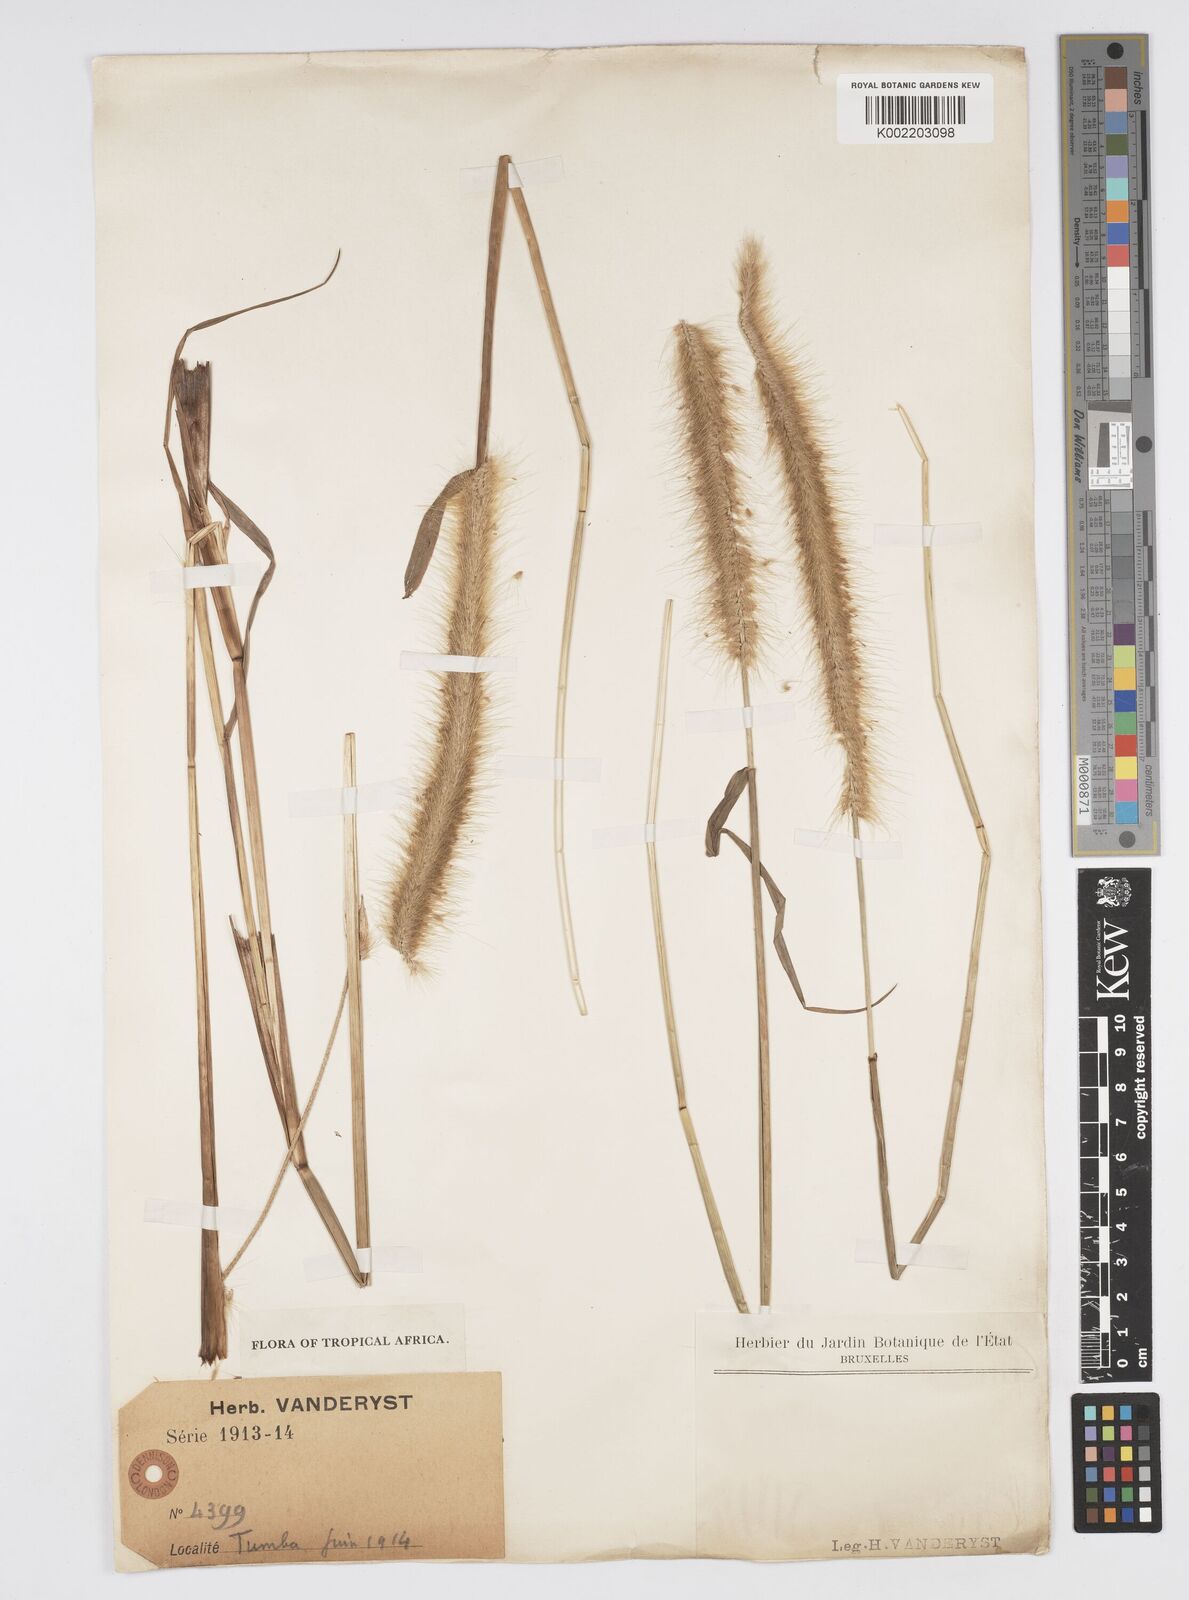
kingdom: Plantae
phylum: Tracheophyta
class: Liliopsida
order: Poales
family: Poaceae
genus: Setaria
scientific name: Setaria parviflora
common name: Knotroot bristle-grass
